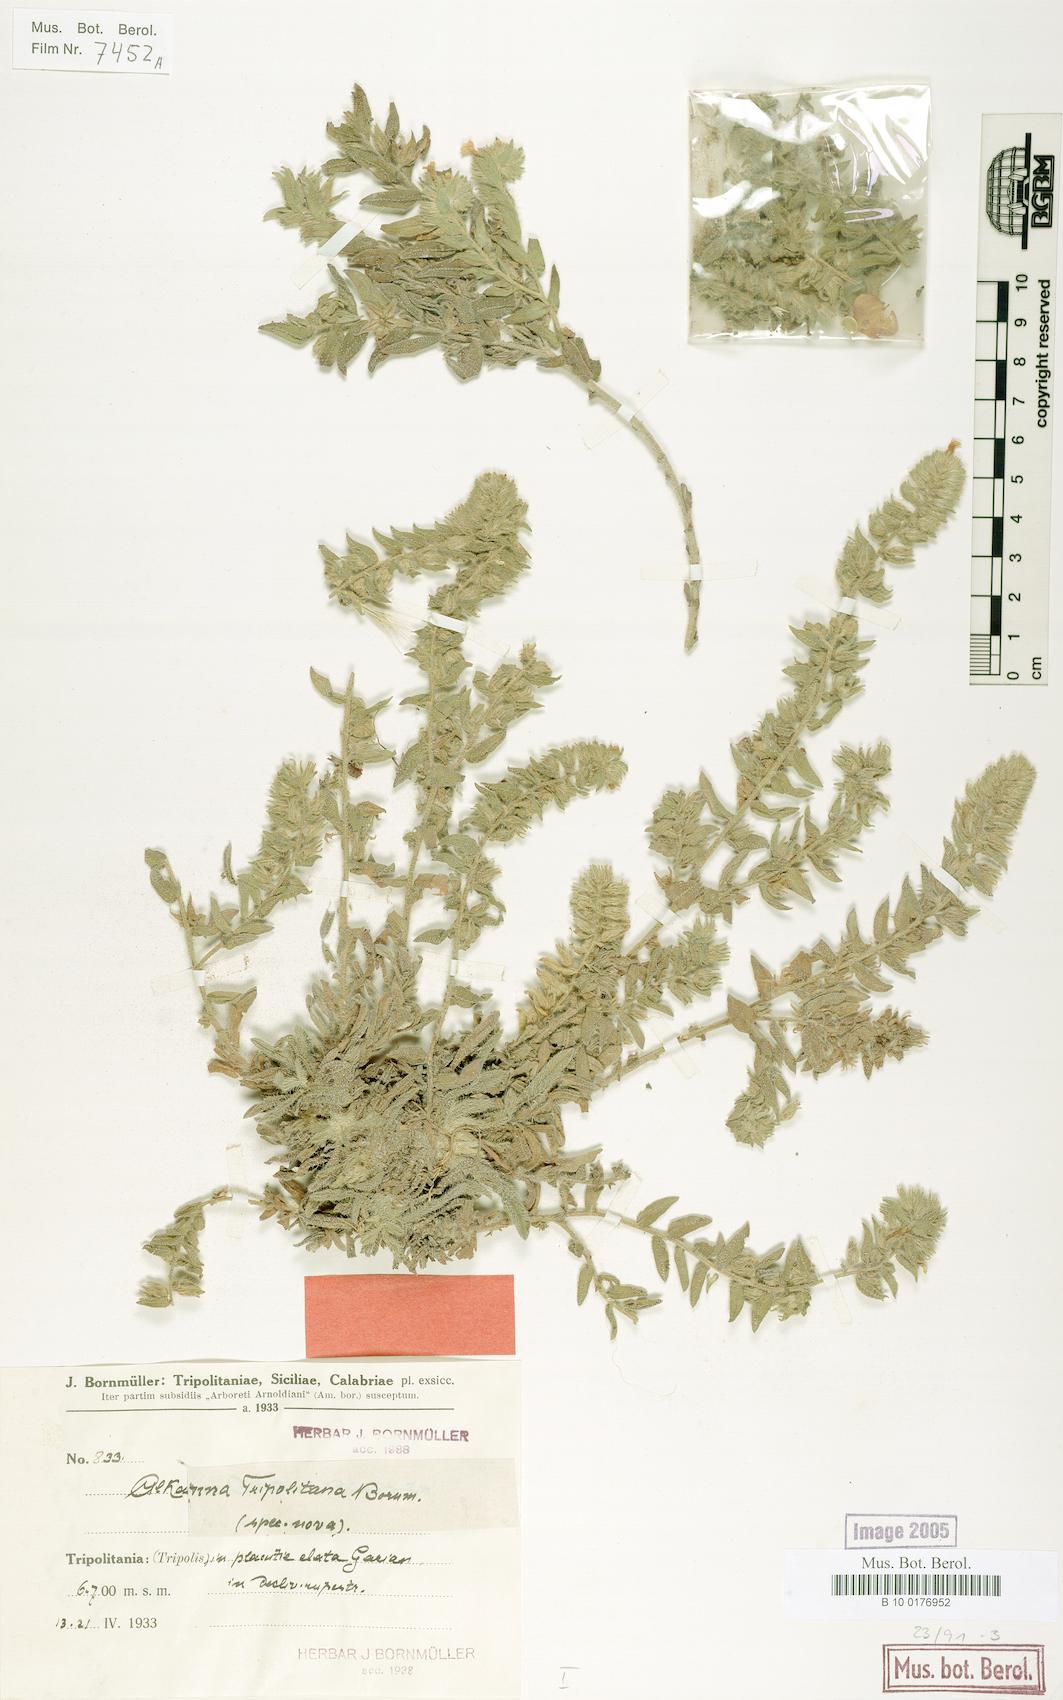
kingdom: Plantae
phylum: Tracheophyta
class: Magnoliopsida
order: Boraginales
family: Boraginaceae
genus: Alkanna
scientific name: Alkanna tinctoria
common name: Dyer's-alkanet
